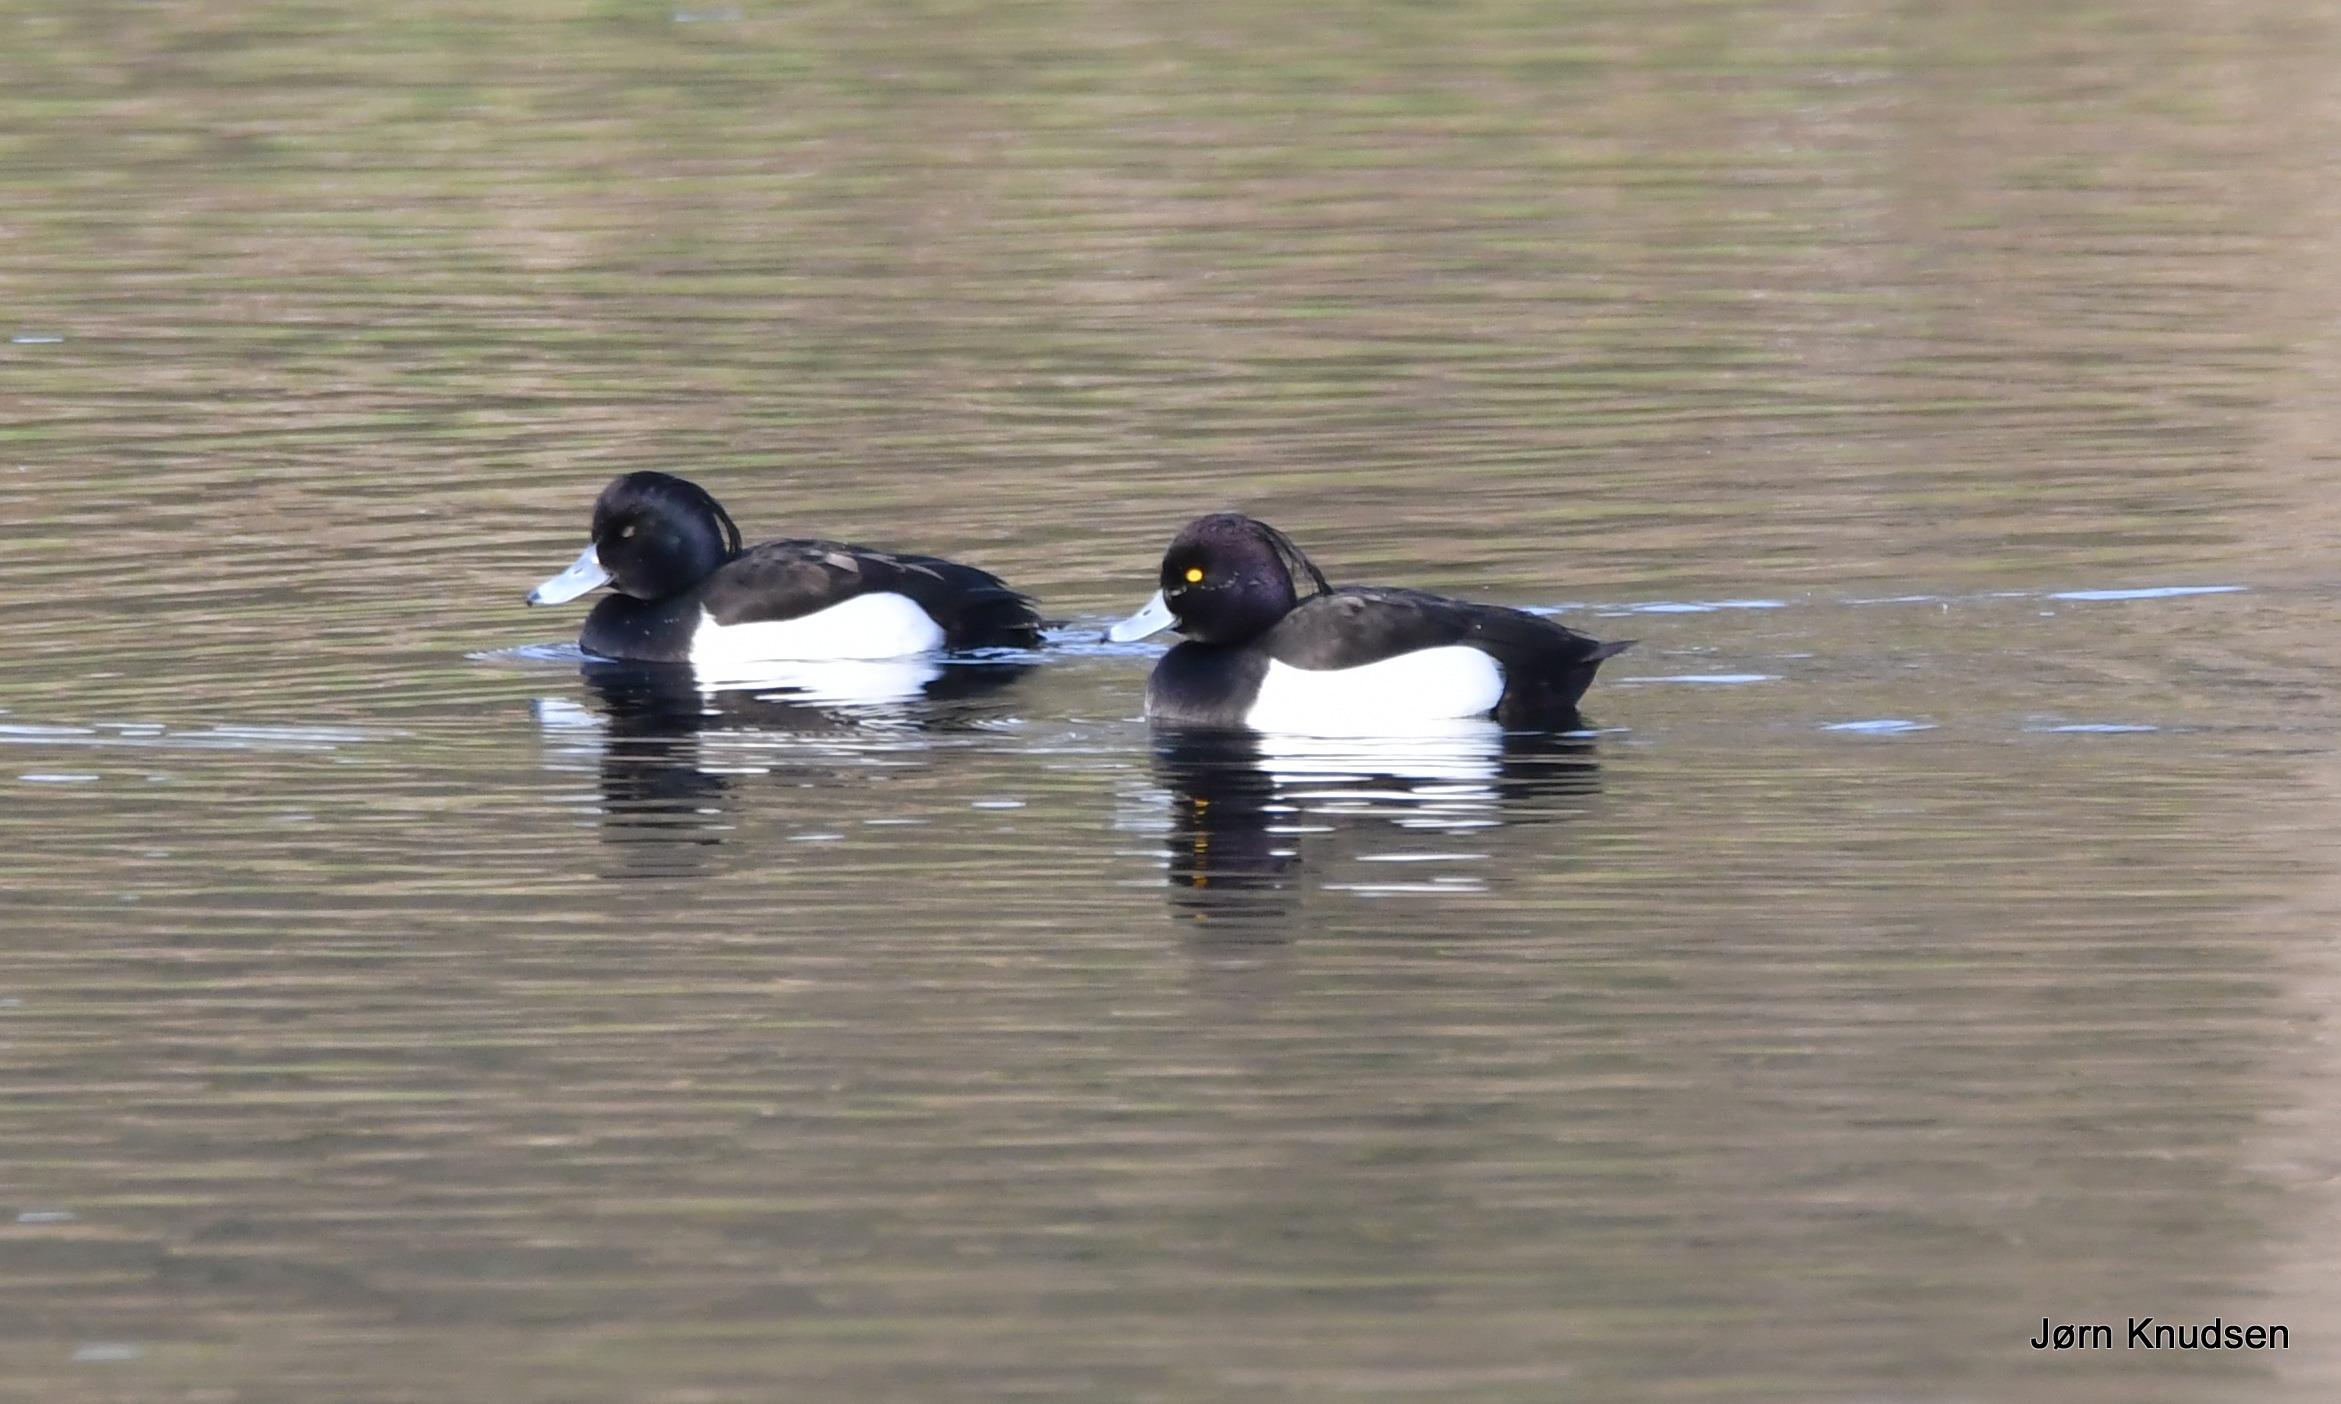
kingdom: Animalia
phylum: Chordata
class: Aves
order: Anseriformes
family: Anatidae
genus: Aythya
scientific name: Aythya fuligula
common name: Troldand
